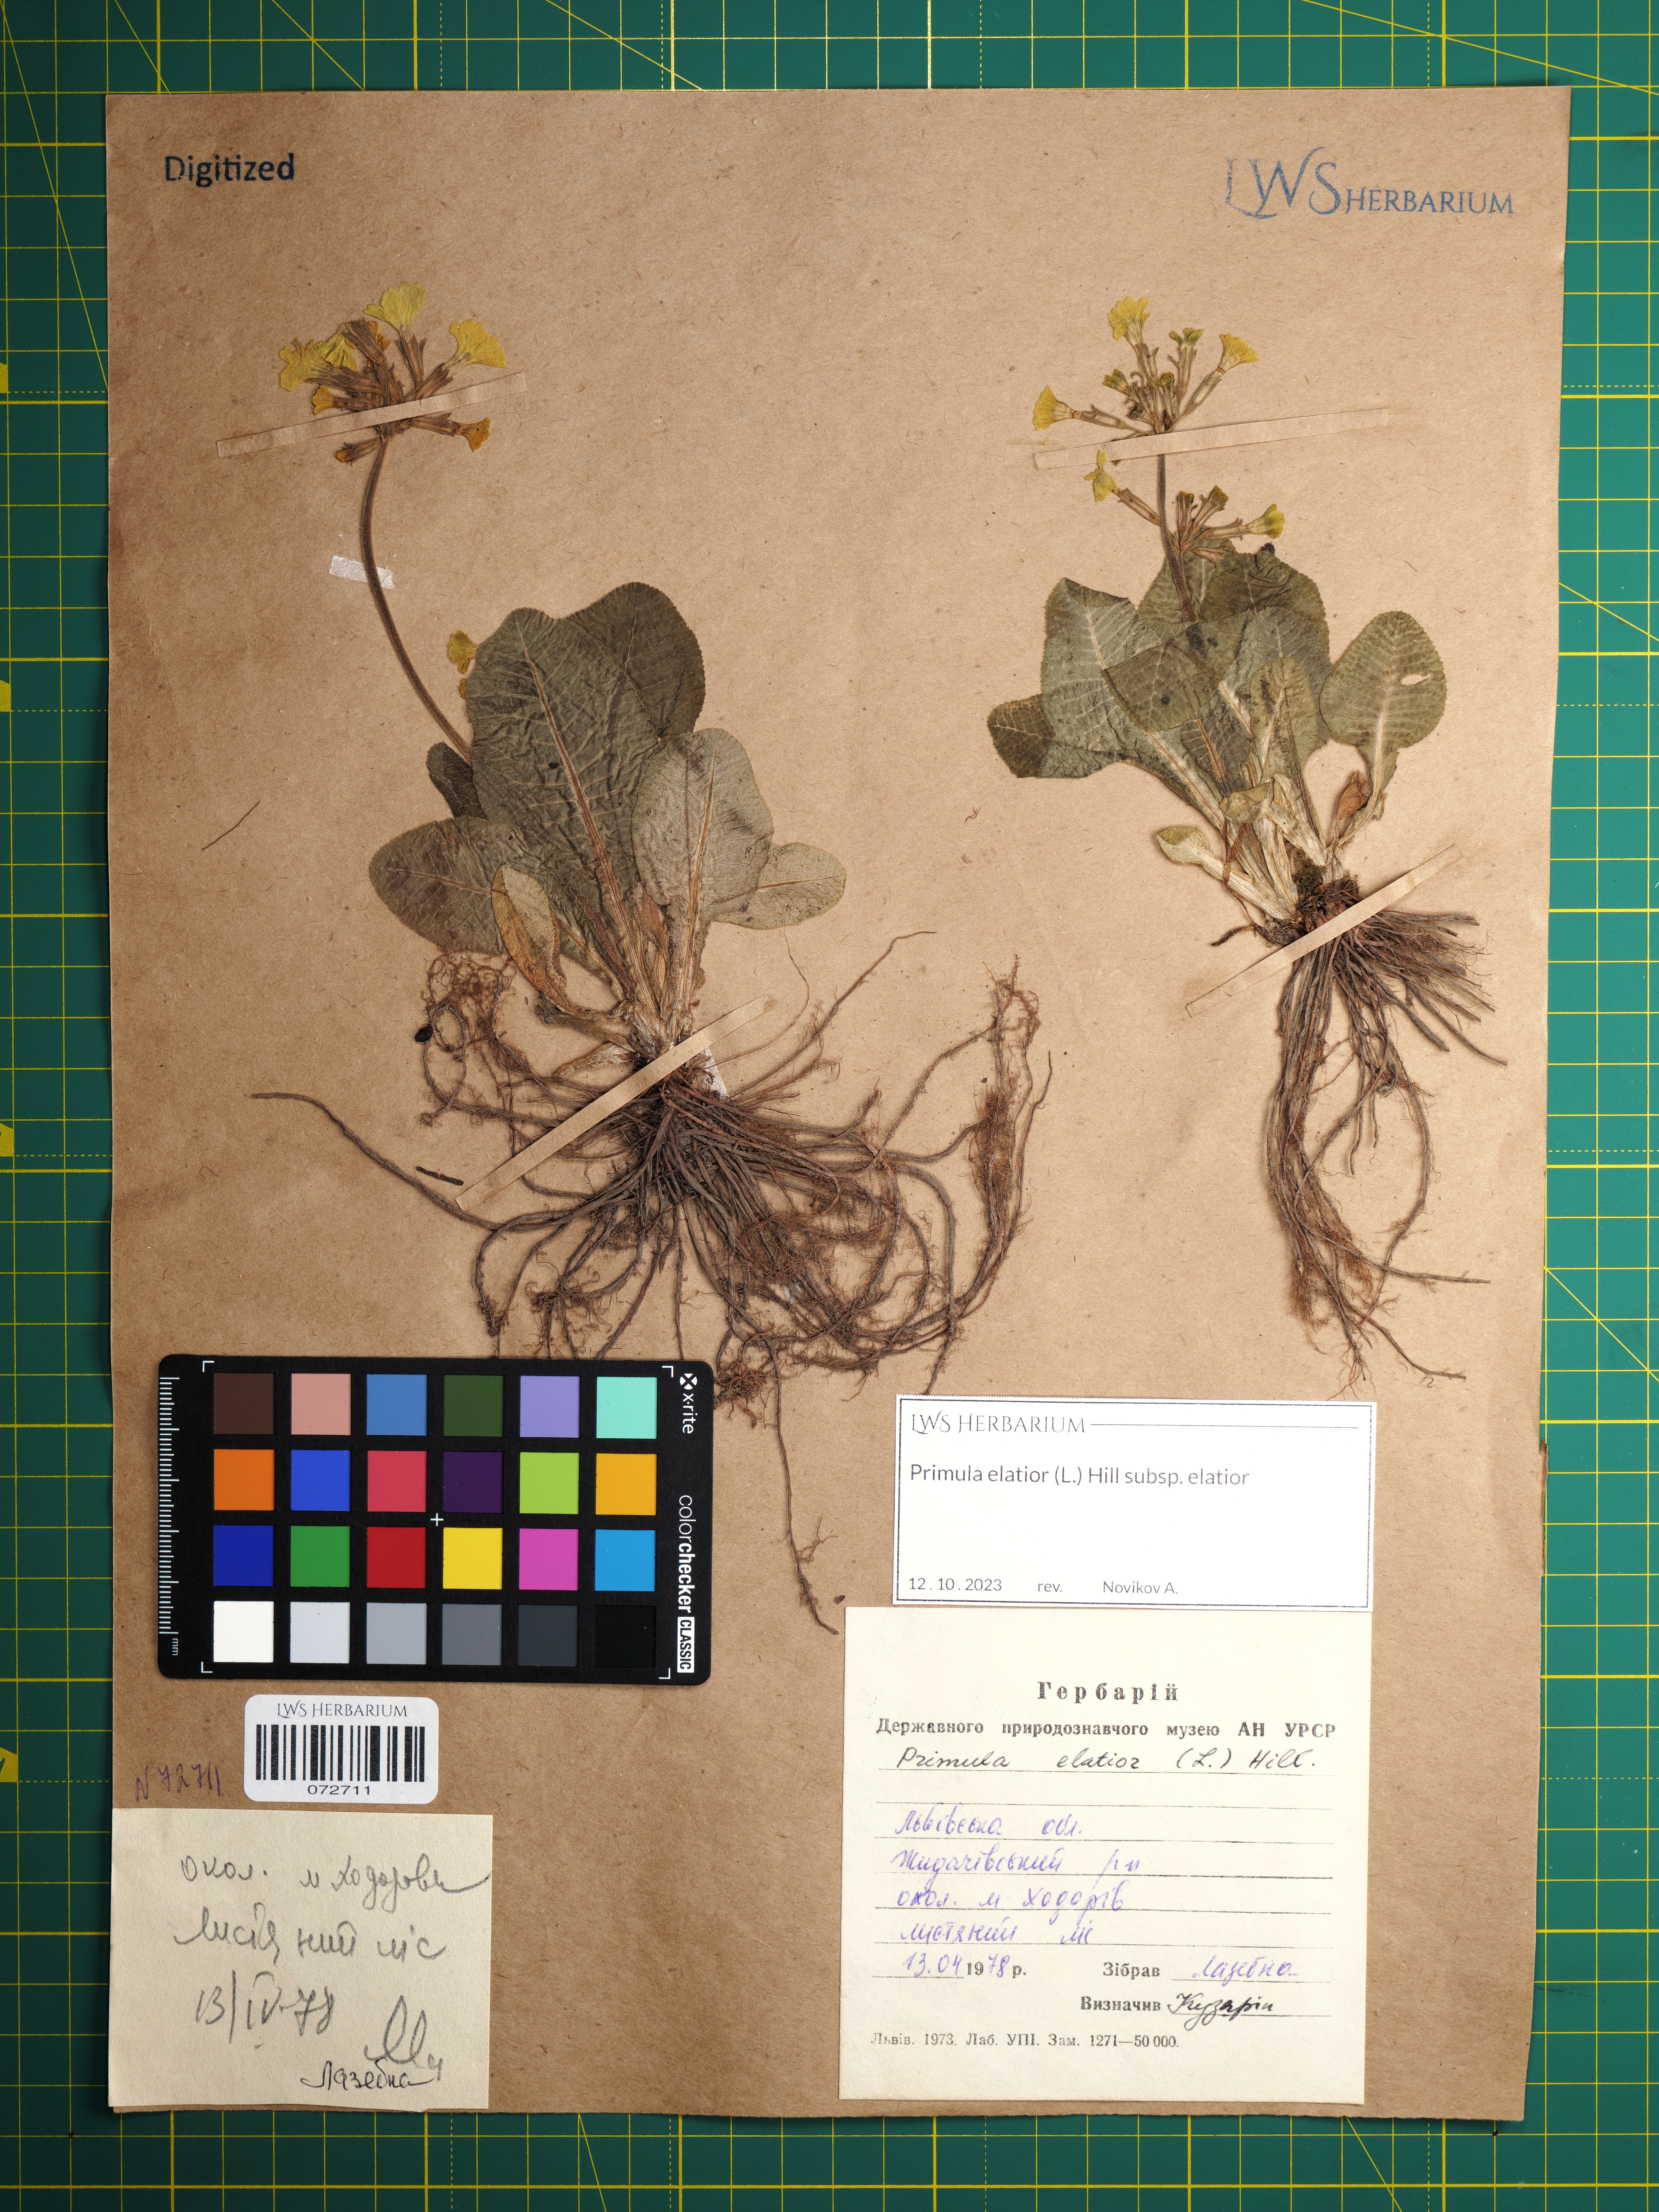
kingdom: Plantae
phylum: Tracheophyta
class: Magnoliopsida
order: Ericales
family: Primulaceae
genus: Primula
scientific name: Primula elatior
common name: Oxlip
